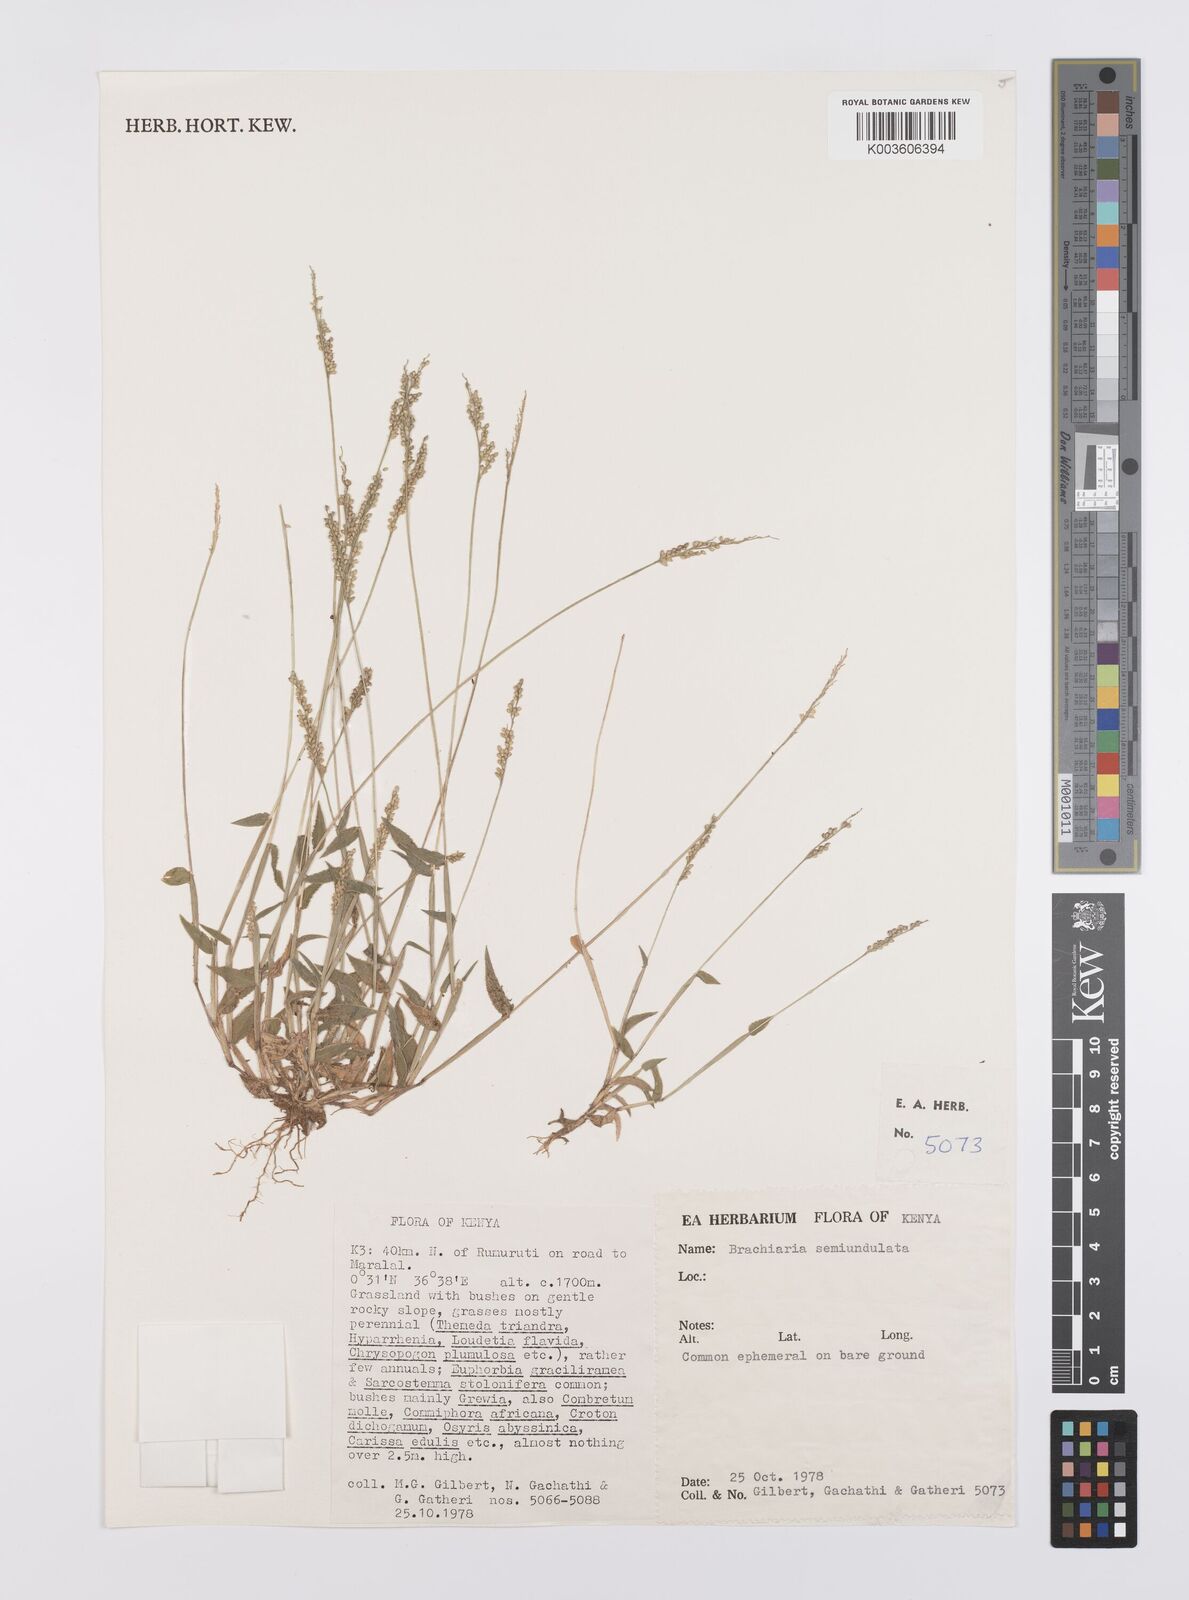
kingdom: Plantae
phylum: Tracheophyta
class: Liliopsida
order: Poales
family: Poaceae
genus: Urochloa
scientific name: Urochloa semiundulata
